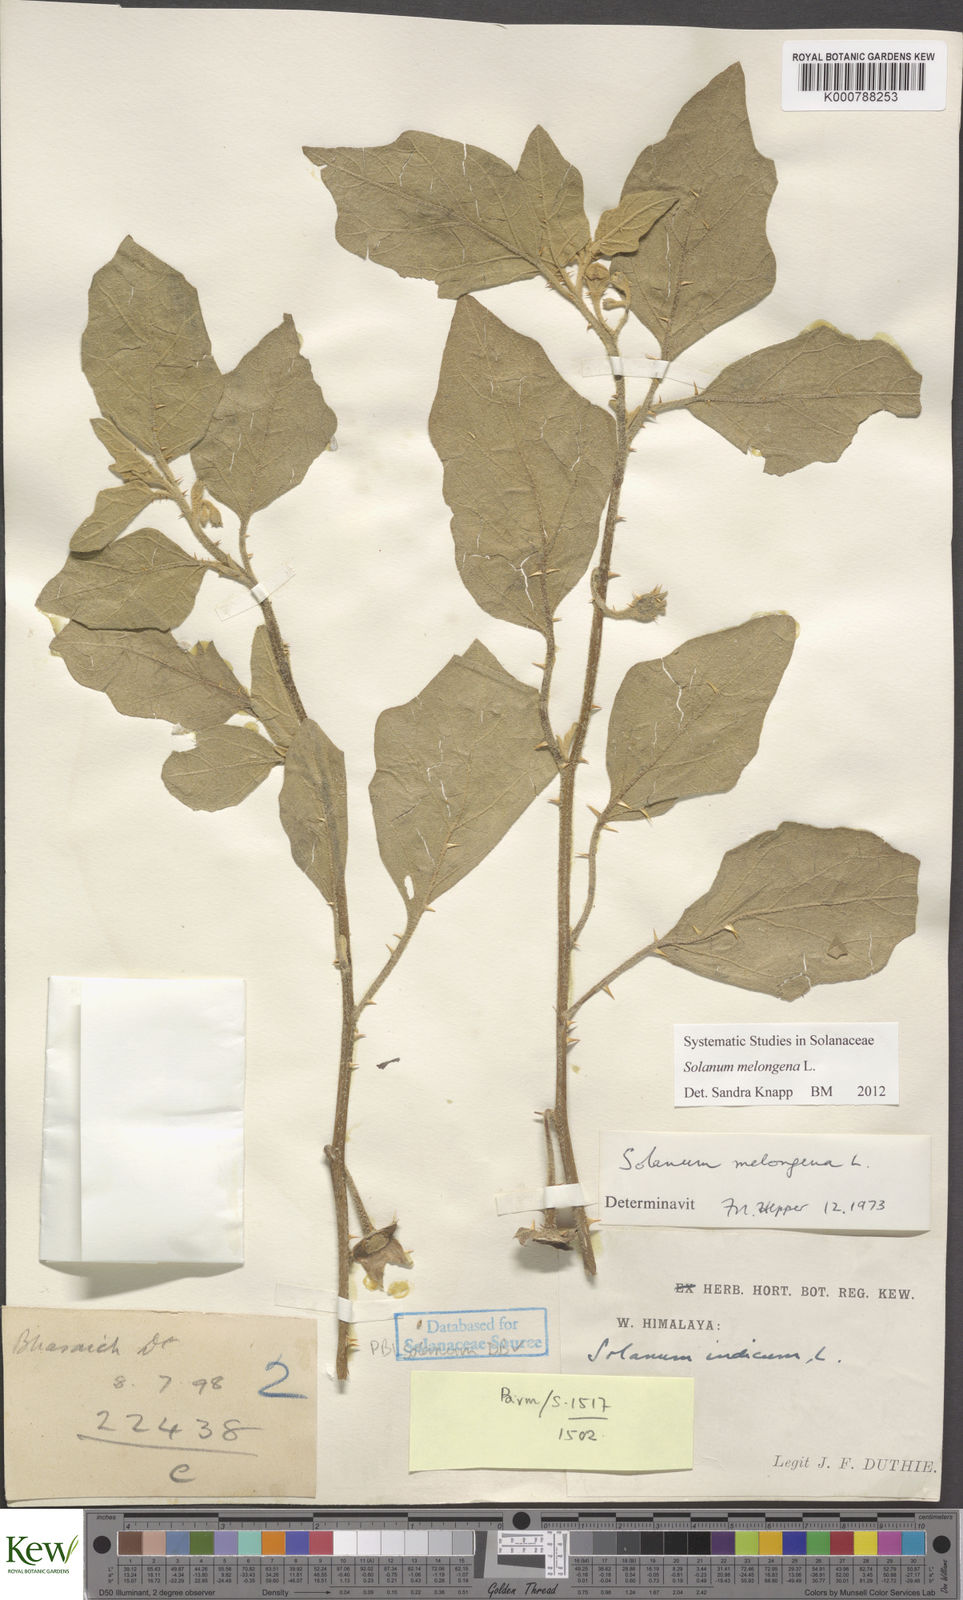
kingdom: Plantae
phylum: Tracheophyta
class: Magnoliopsida
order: Solanales
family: Solanaceae
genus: Solanum
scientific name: Solanum melongena
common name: Eggplant
